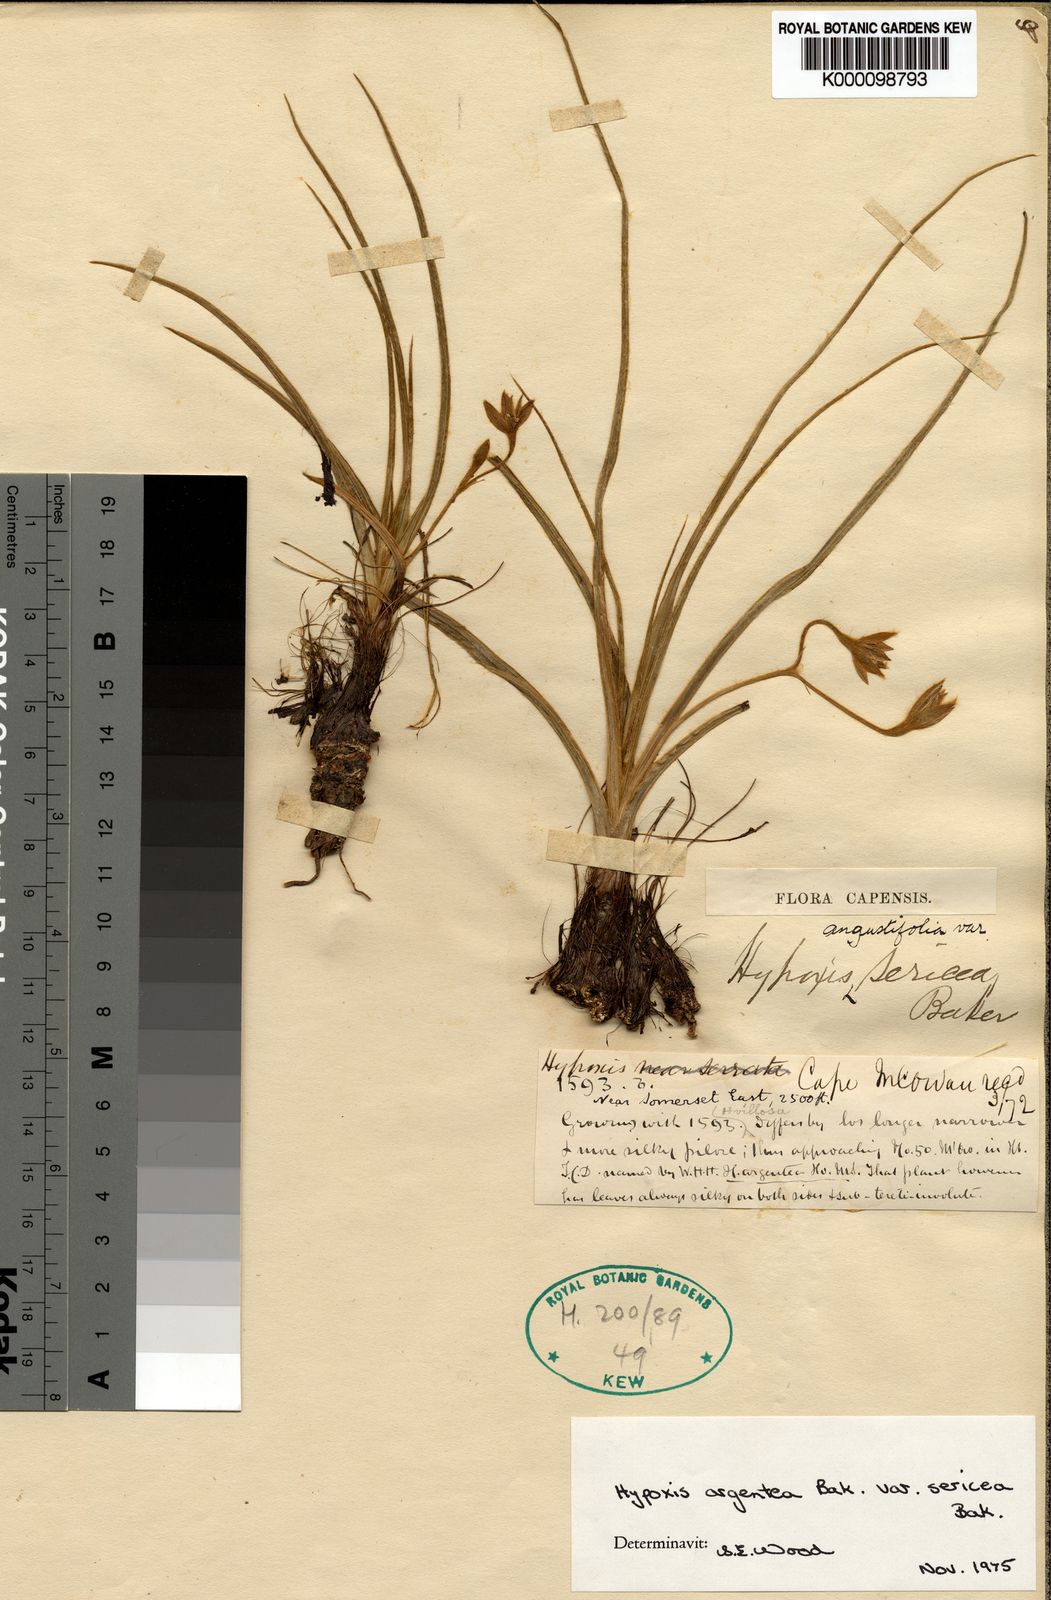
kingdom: Plantae
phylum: Tracheophyta
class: Liliopsida
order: Asparagales
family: Hypoxidaceae
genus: Hypoxis
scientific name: Hypoxis argentea
